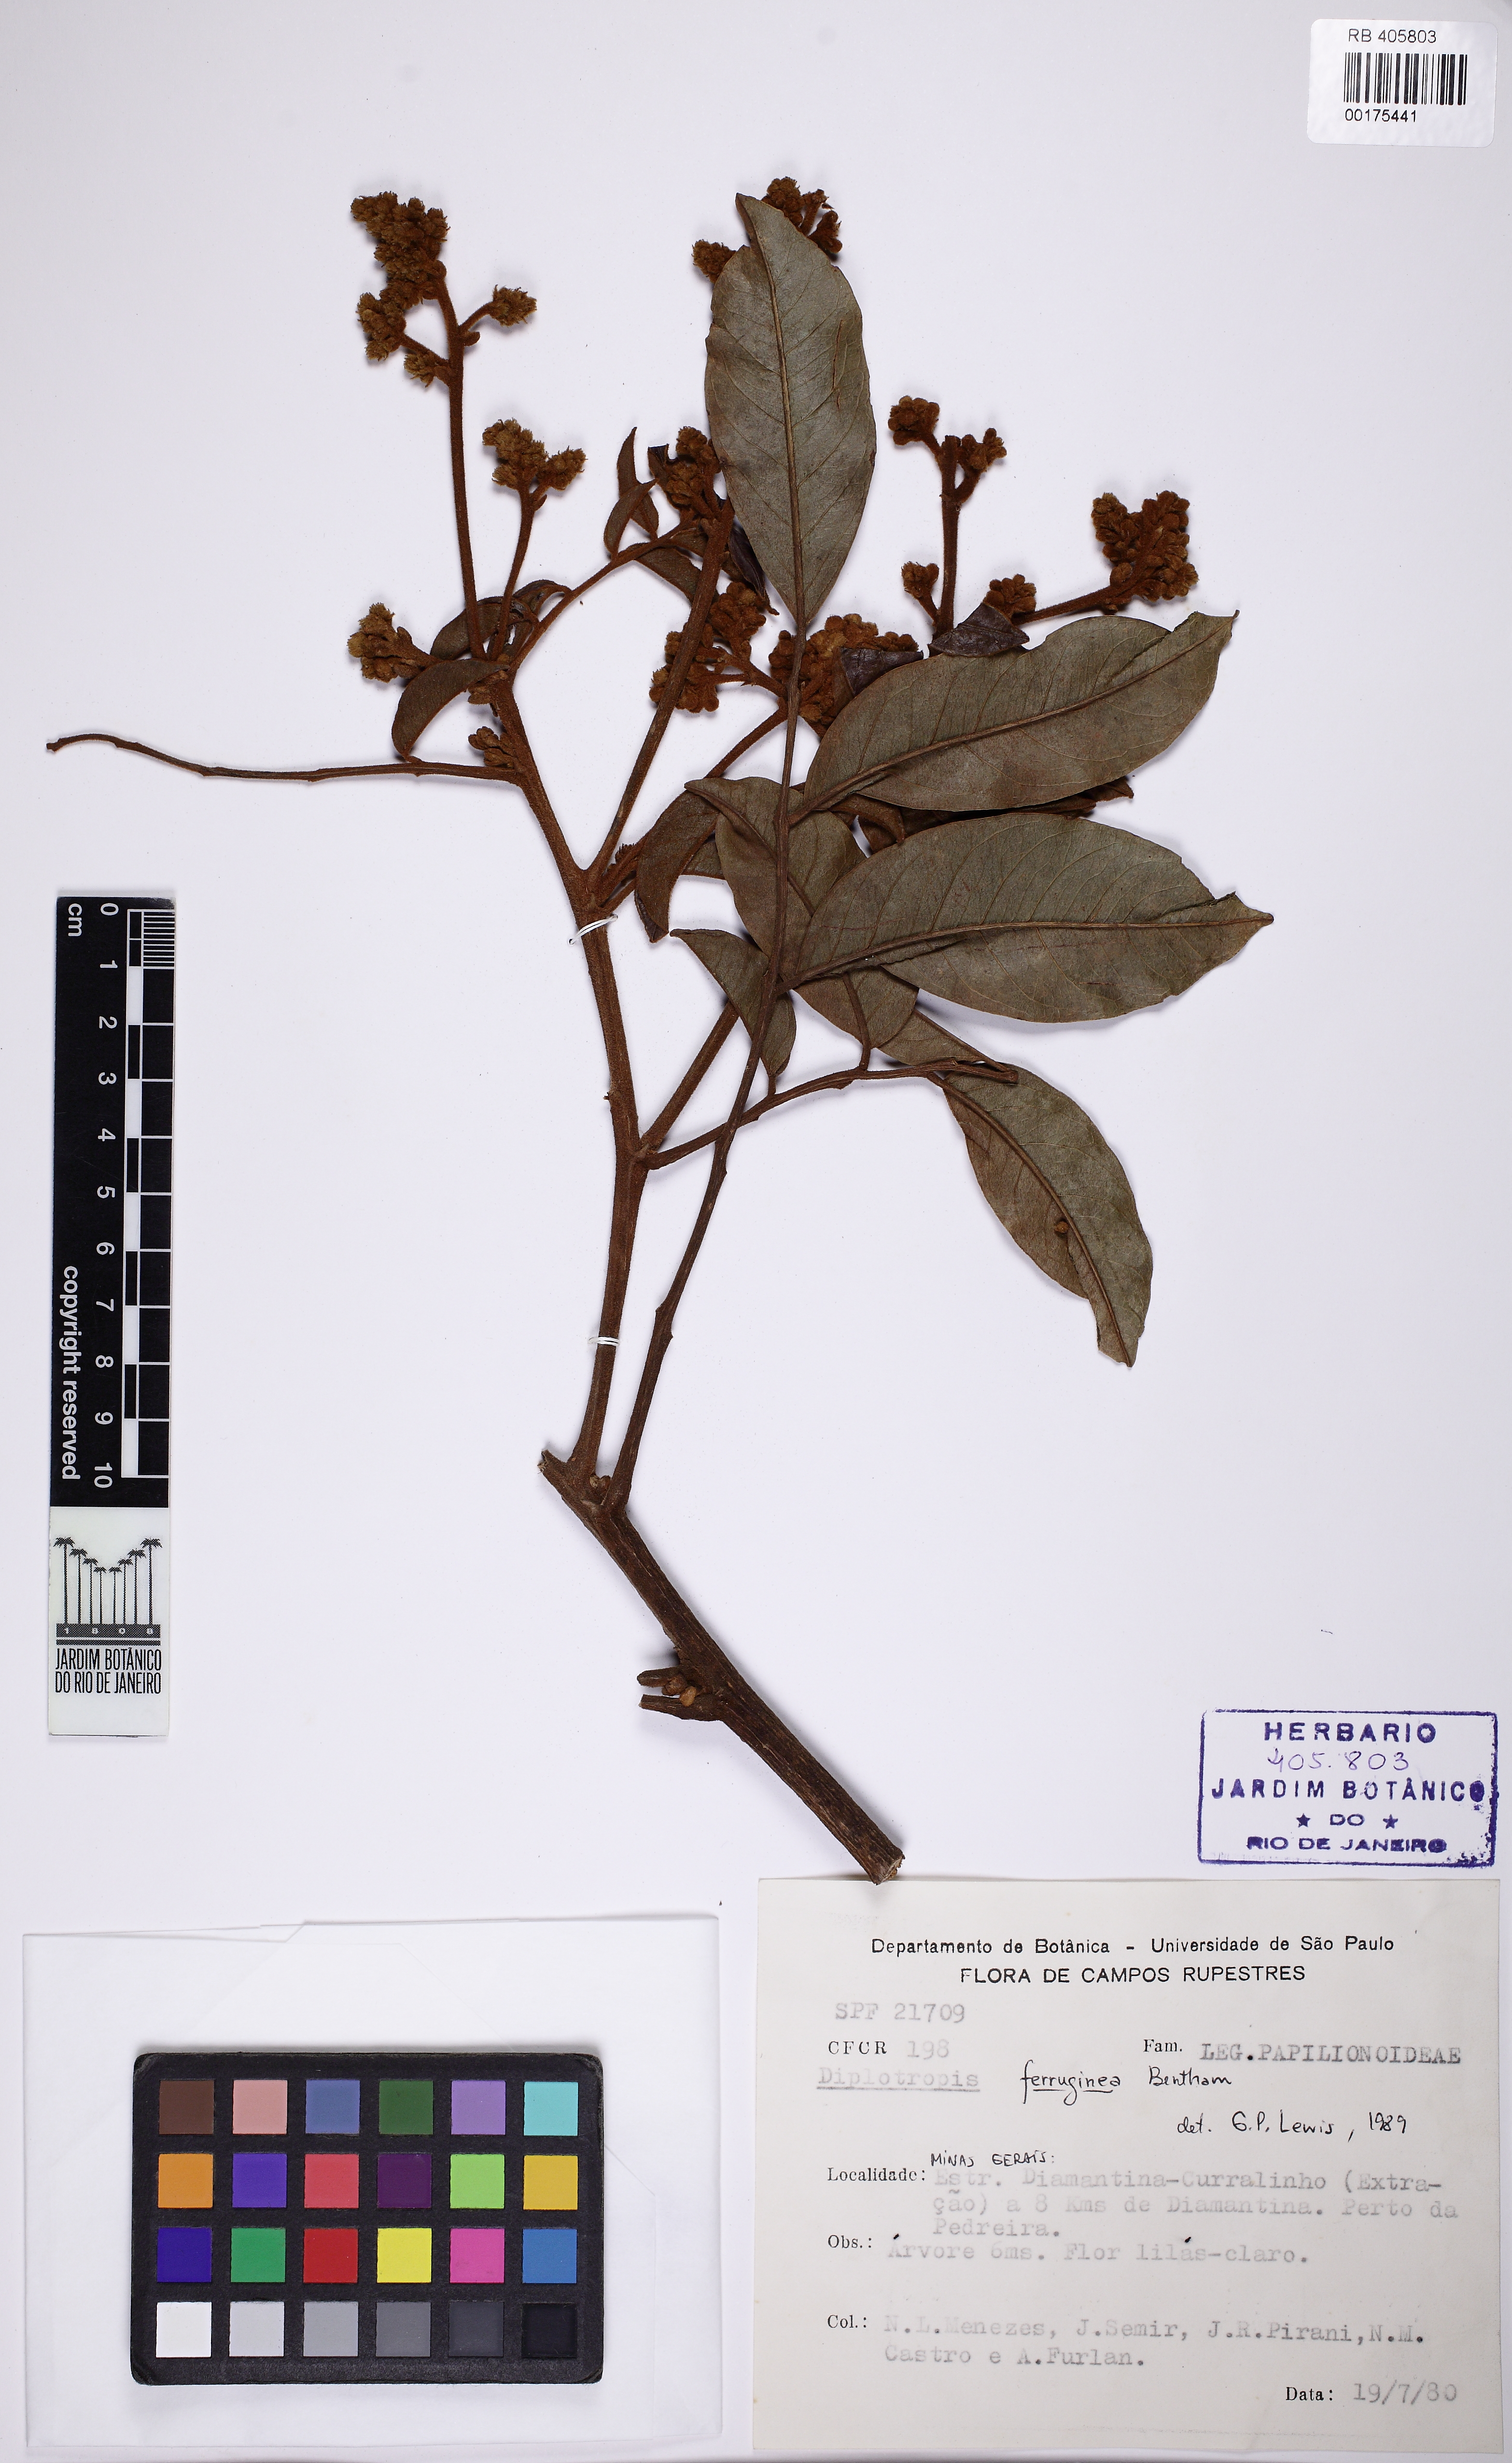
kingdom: Plantae
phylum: Tracheophyta
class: Magnoliopsida
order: Fabales
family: Fabaceae
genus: Diplotropis
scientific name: Diplotropis ferruginea
